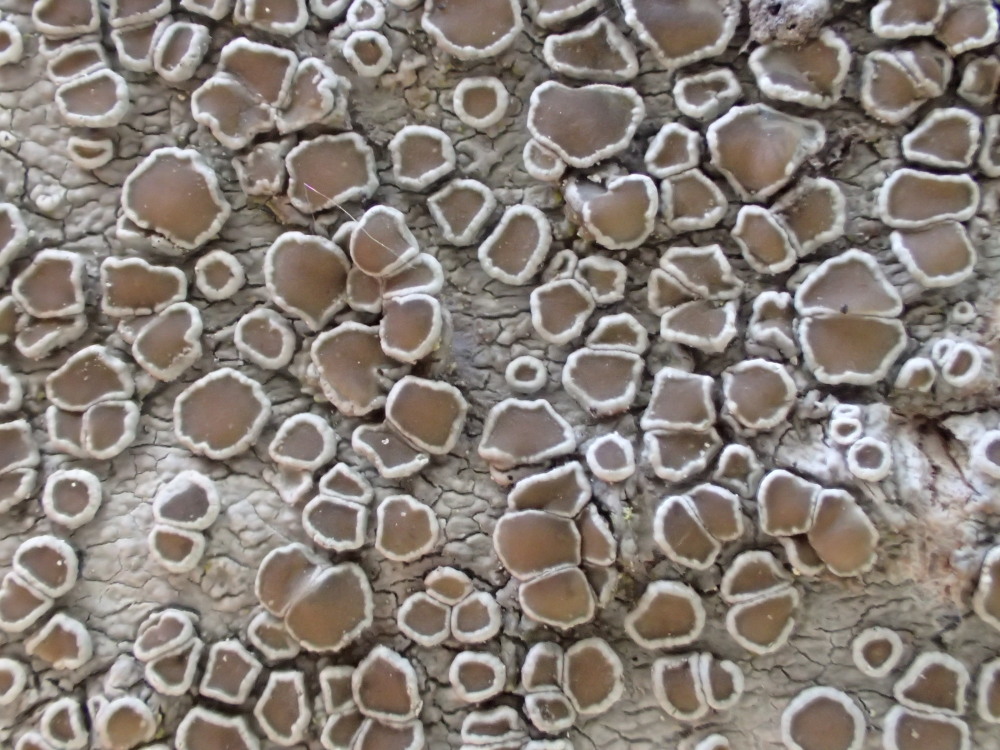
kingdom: Fungi
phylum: Ascomycota
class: Lecanoromycetes
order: Lecanorales
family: Lecanoraceae
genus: Lecanora
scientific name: Lecanora chlarotera
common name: brun kantskivelav
